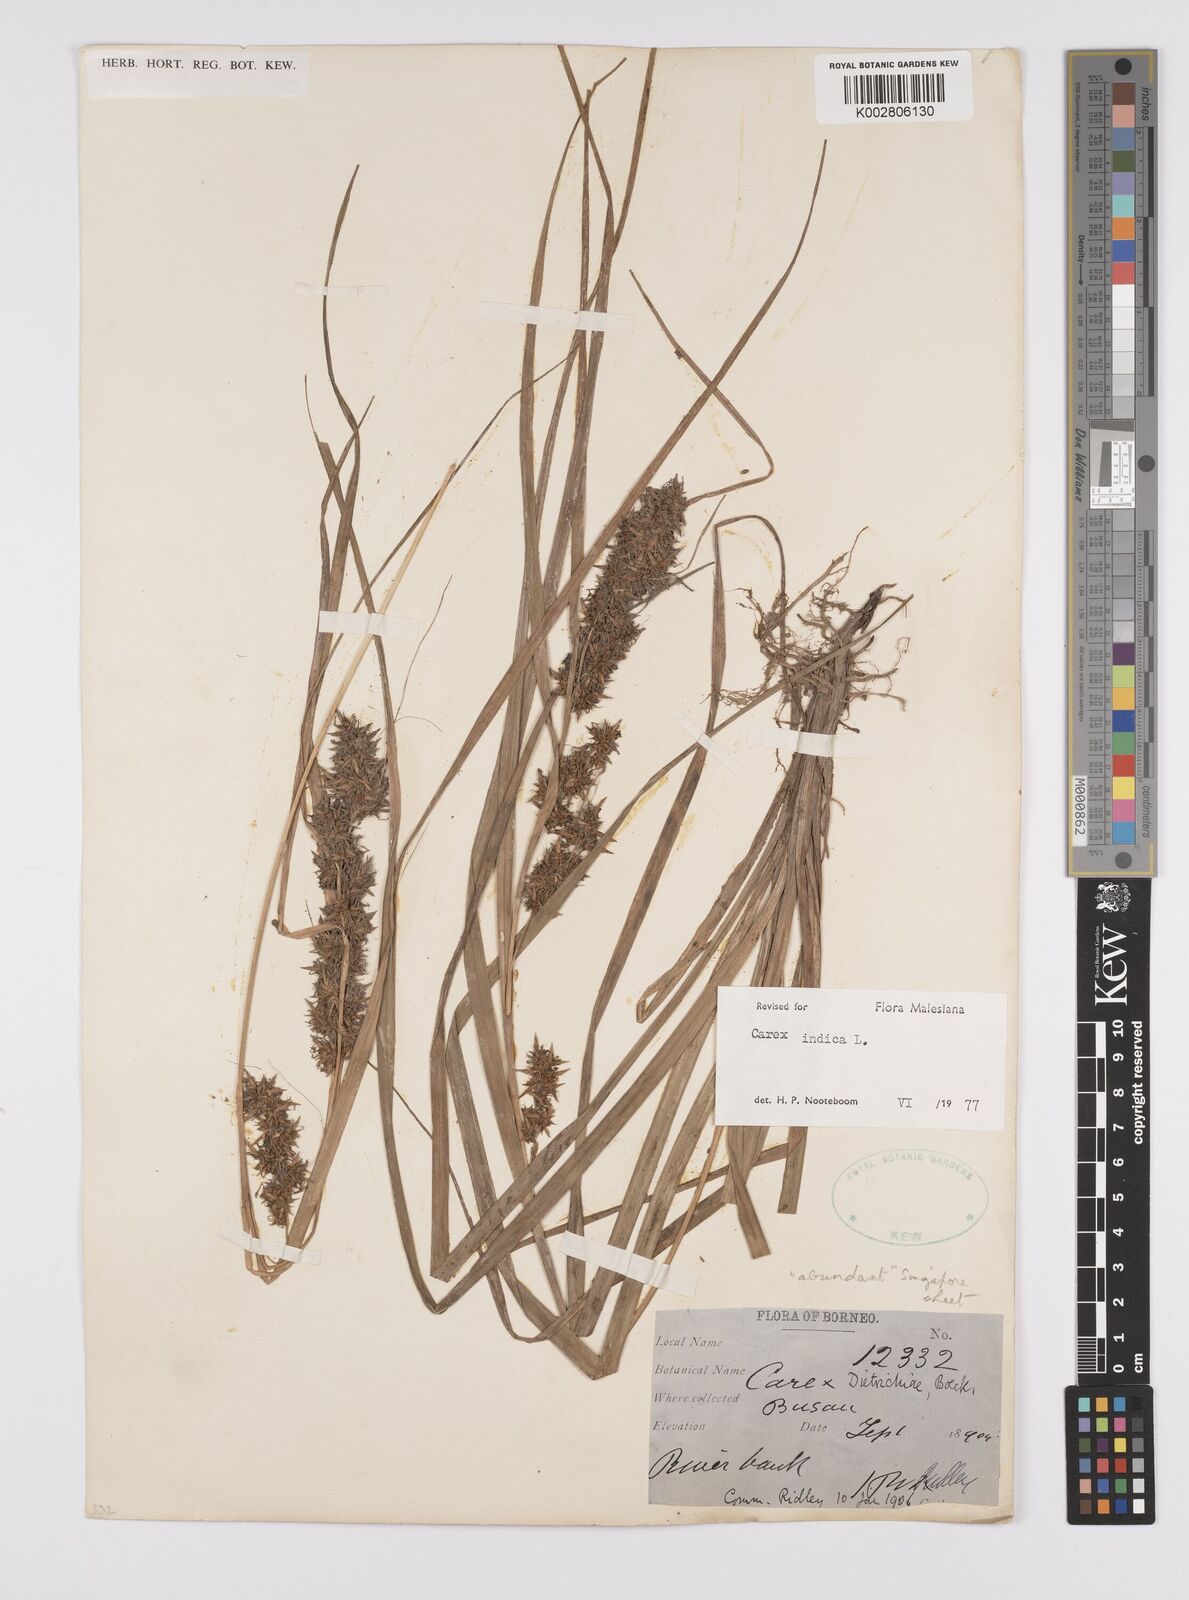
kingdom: Plantae
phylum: Tracheophyta
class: Liliopsida
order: Poales
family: Cyperaceae
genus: Carex
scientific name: Carex indica
